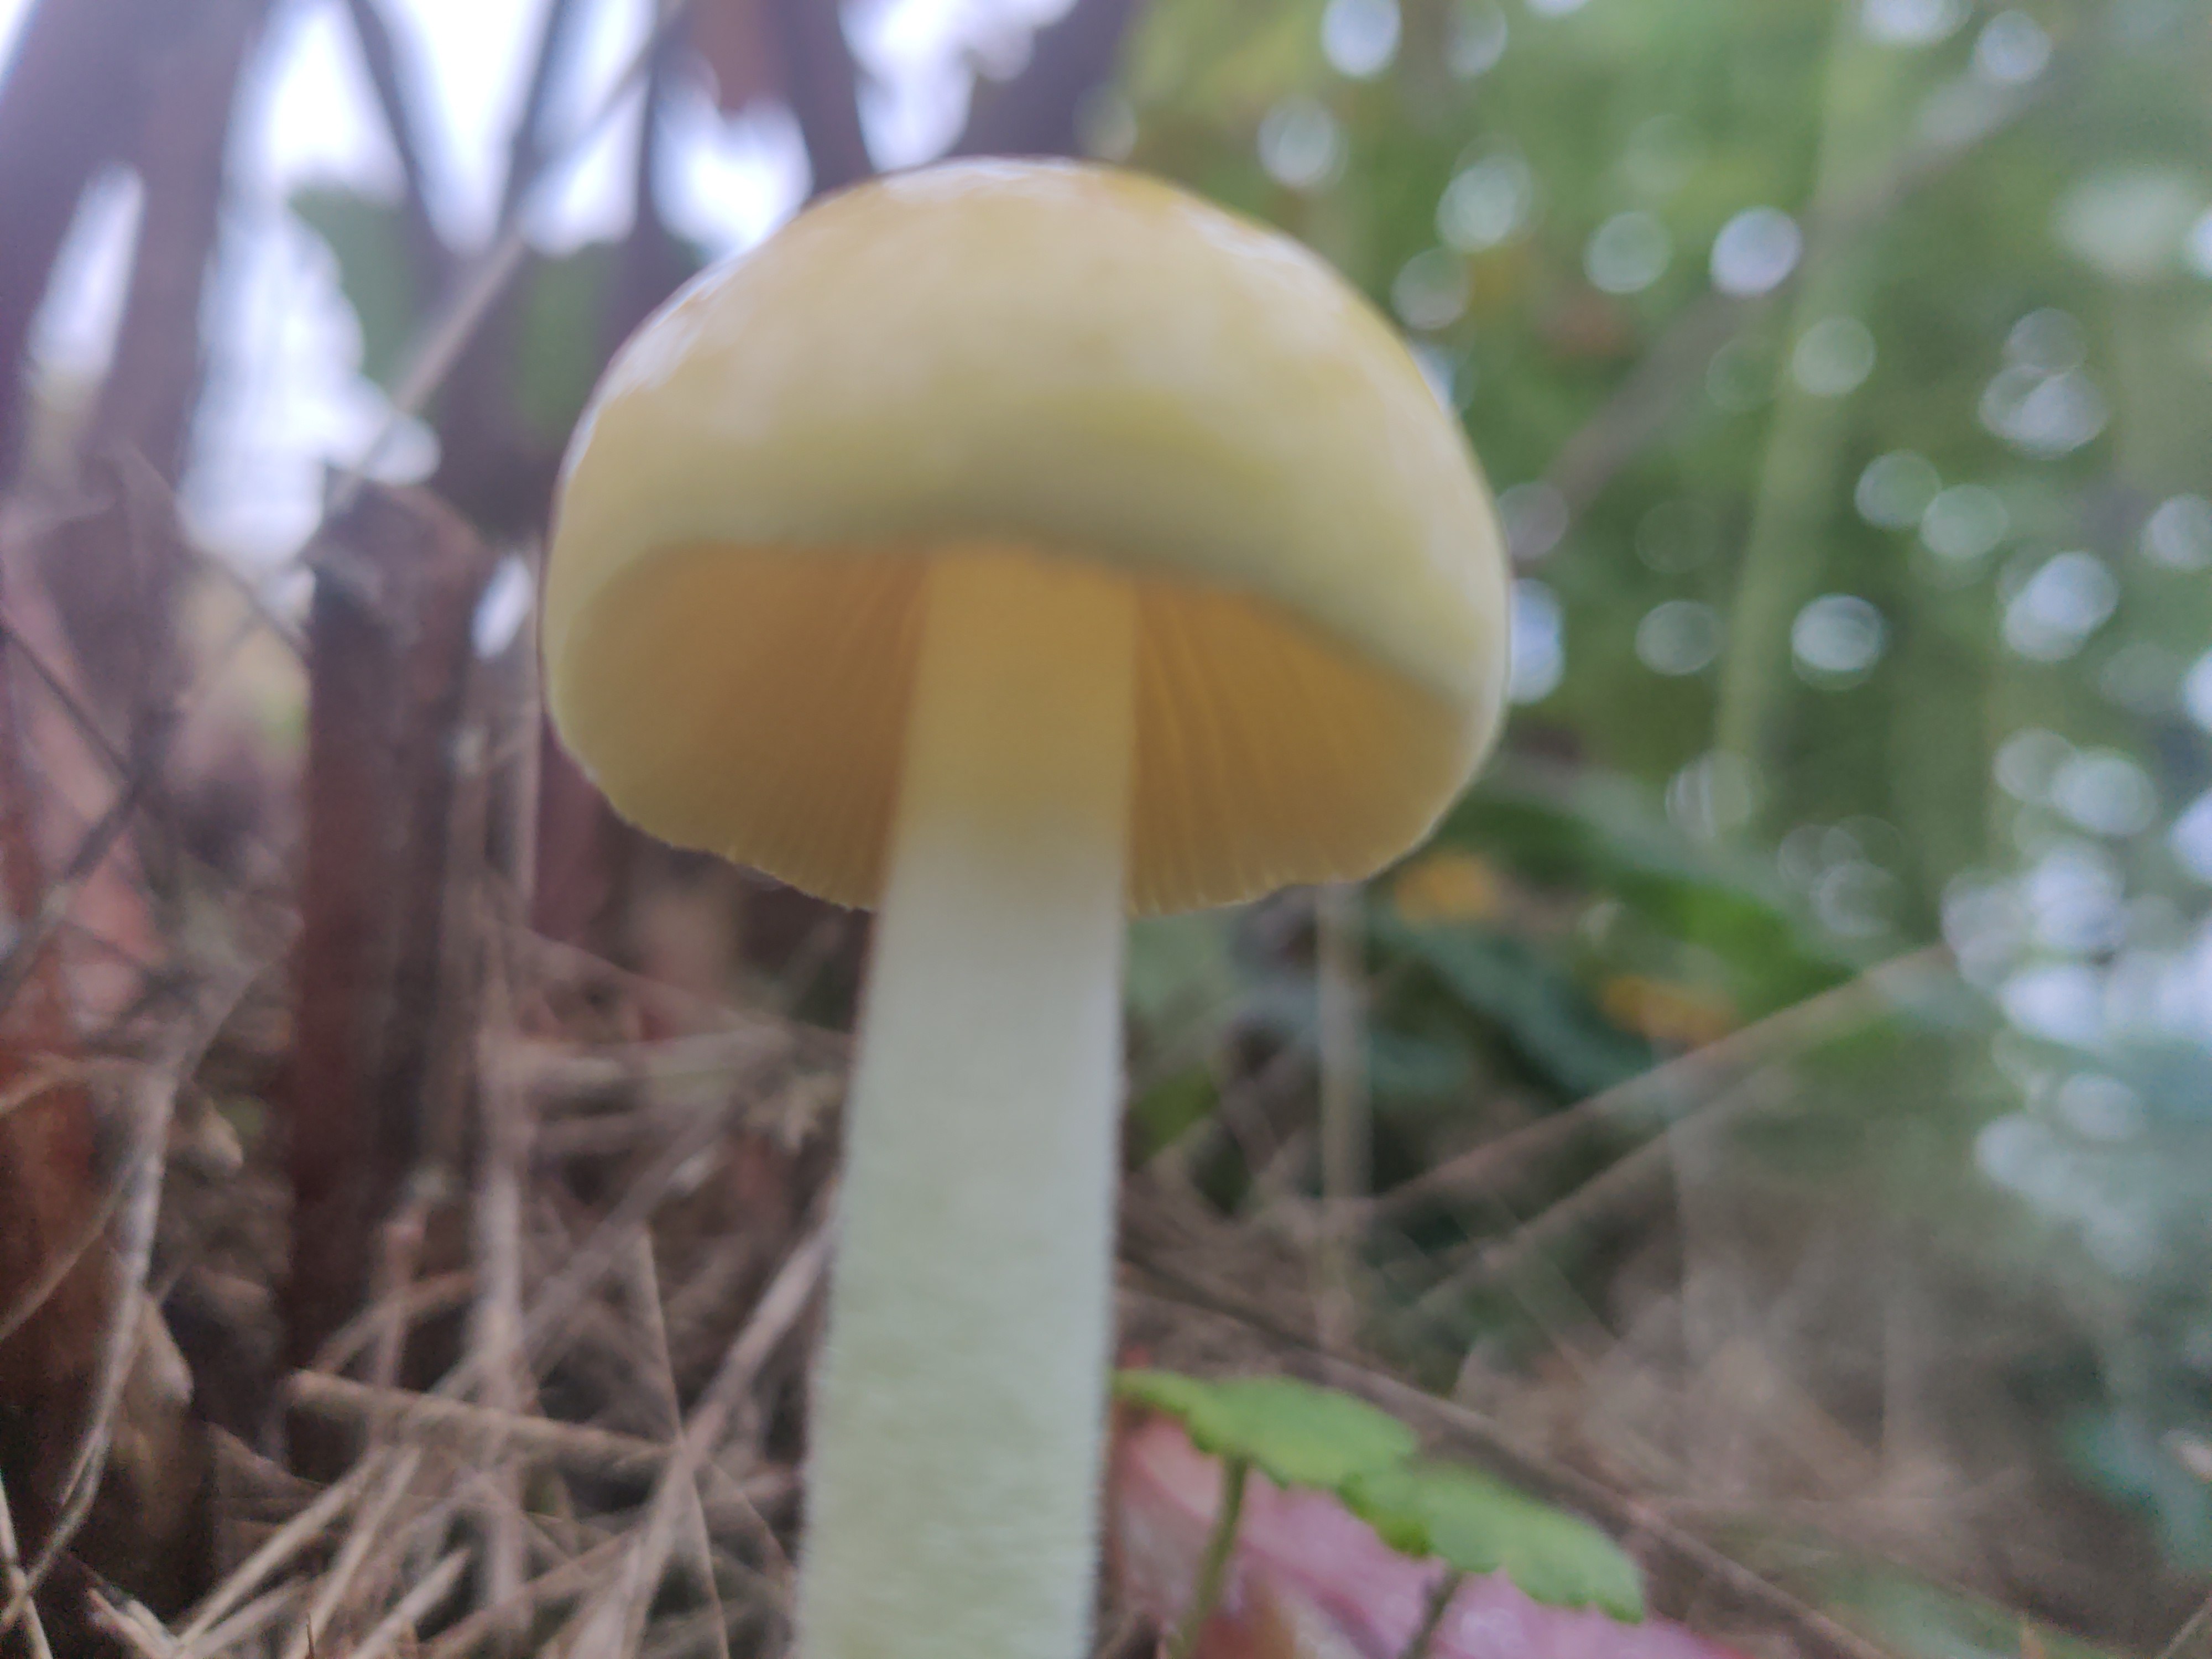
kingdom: Fungi
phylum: Basidiomycota
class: Agaricomycetes
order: Agaricales
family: Bolbitiaceae
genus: Bolbitius
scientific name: Bolbitius titubans
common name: almindelig gulhat
